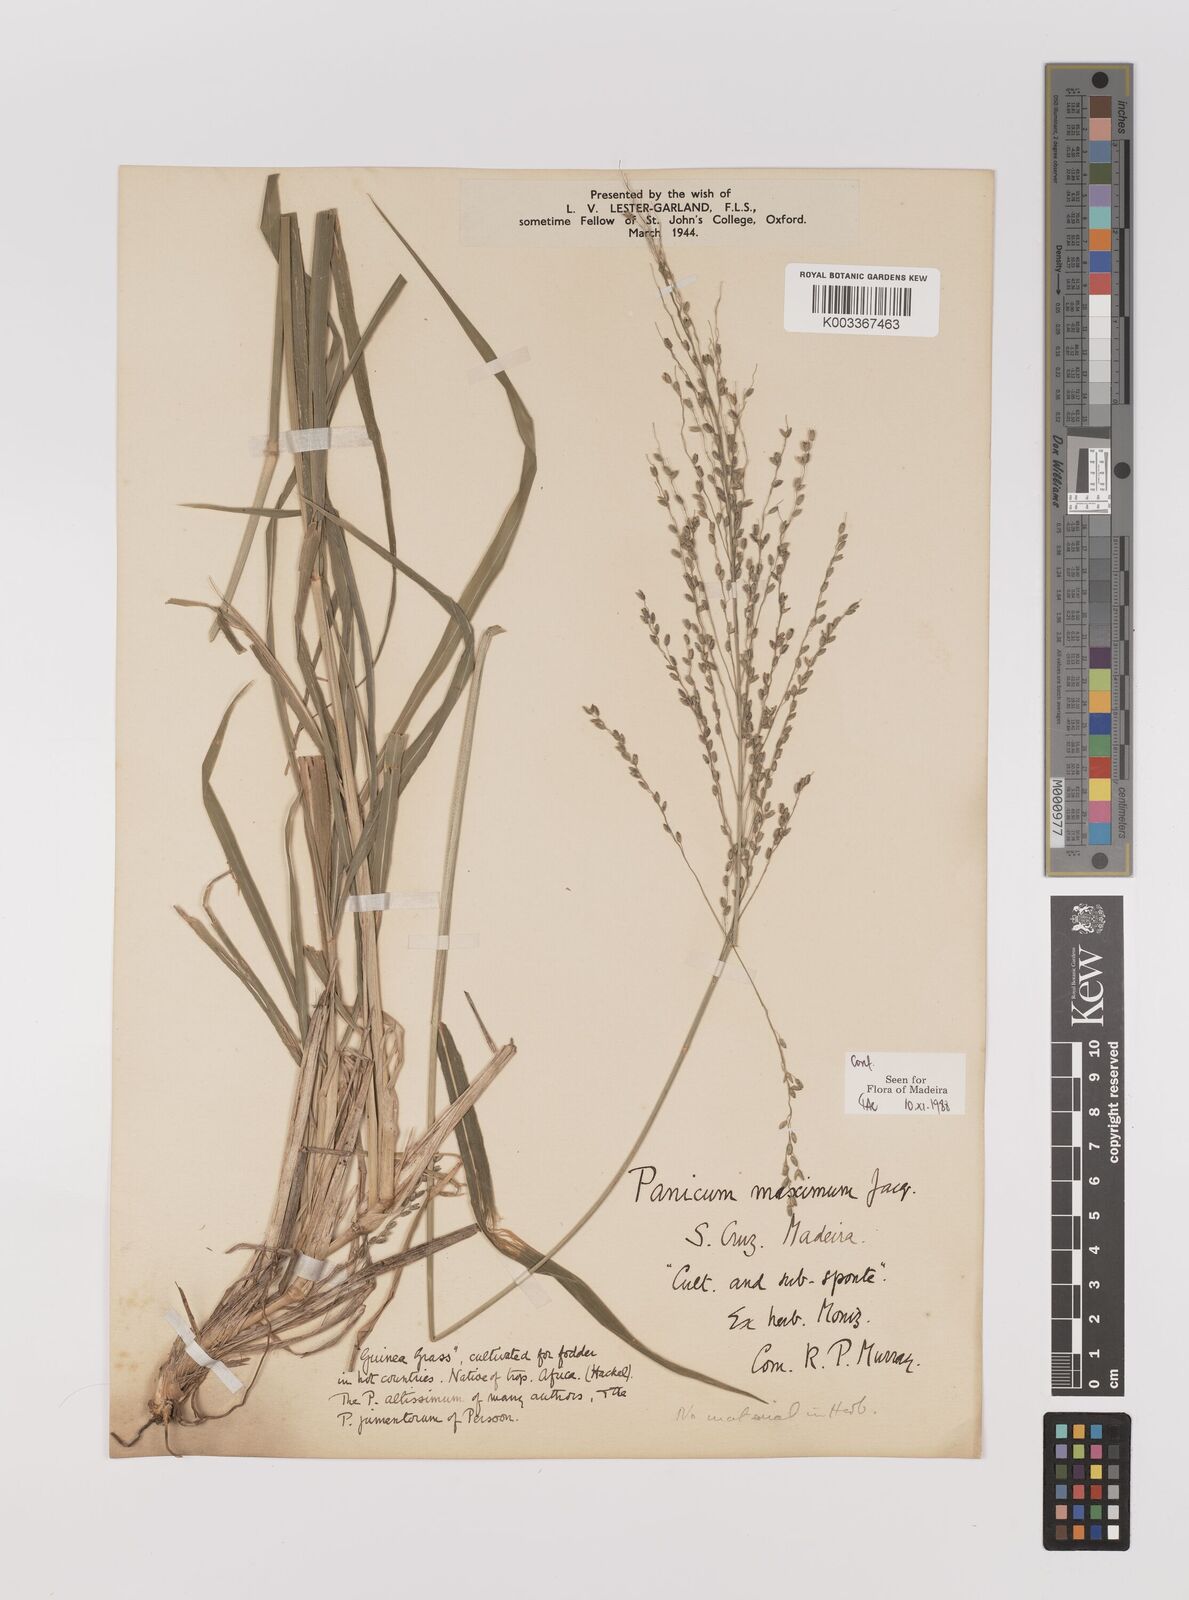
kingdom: Plantae
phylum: Tracheophyta
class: Liliopsida
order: Poales
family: Poaceae
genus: Megathyrsus
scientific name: Megathyrsus maximus
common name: Guineagrass
